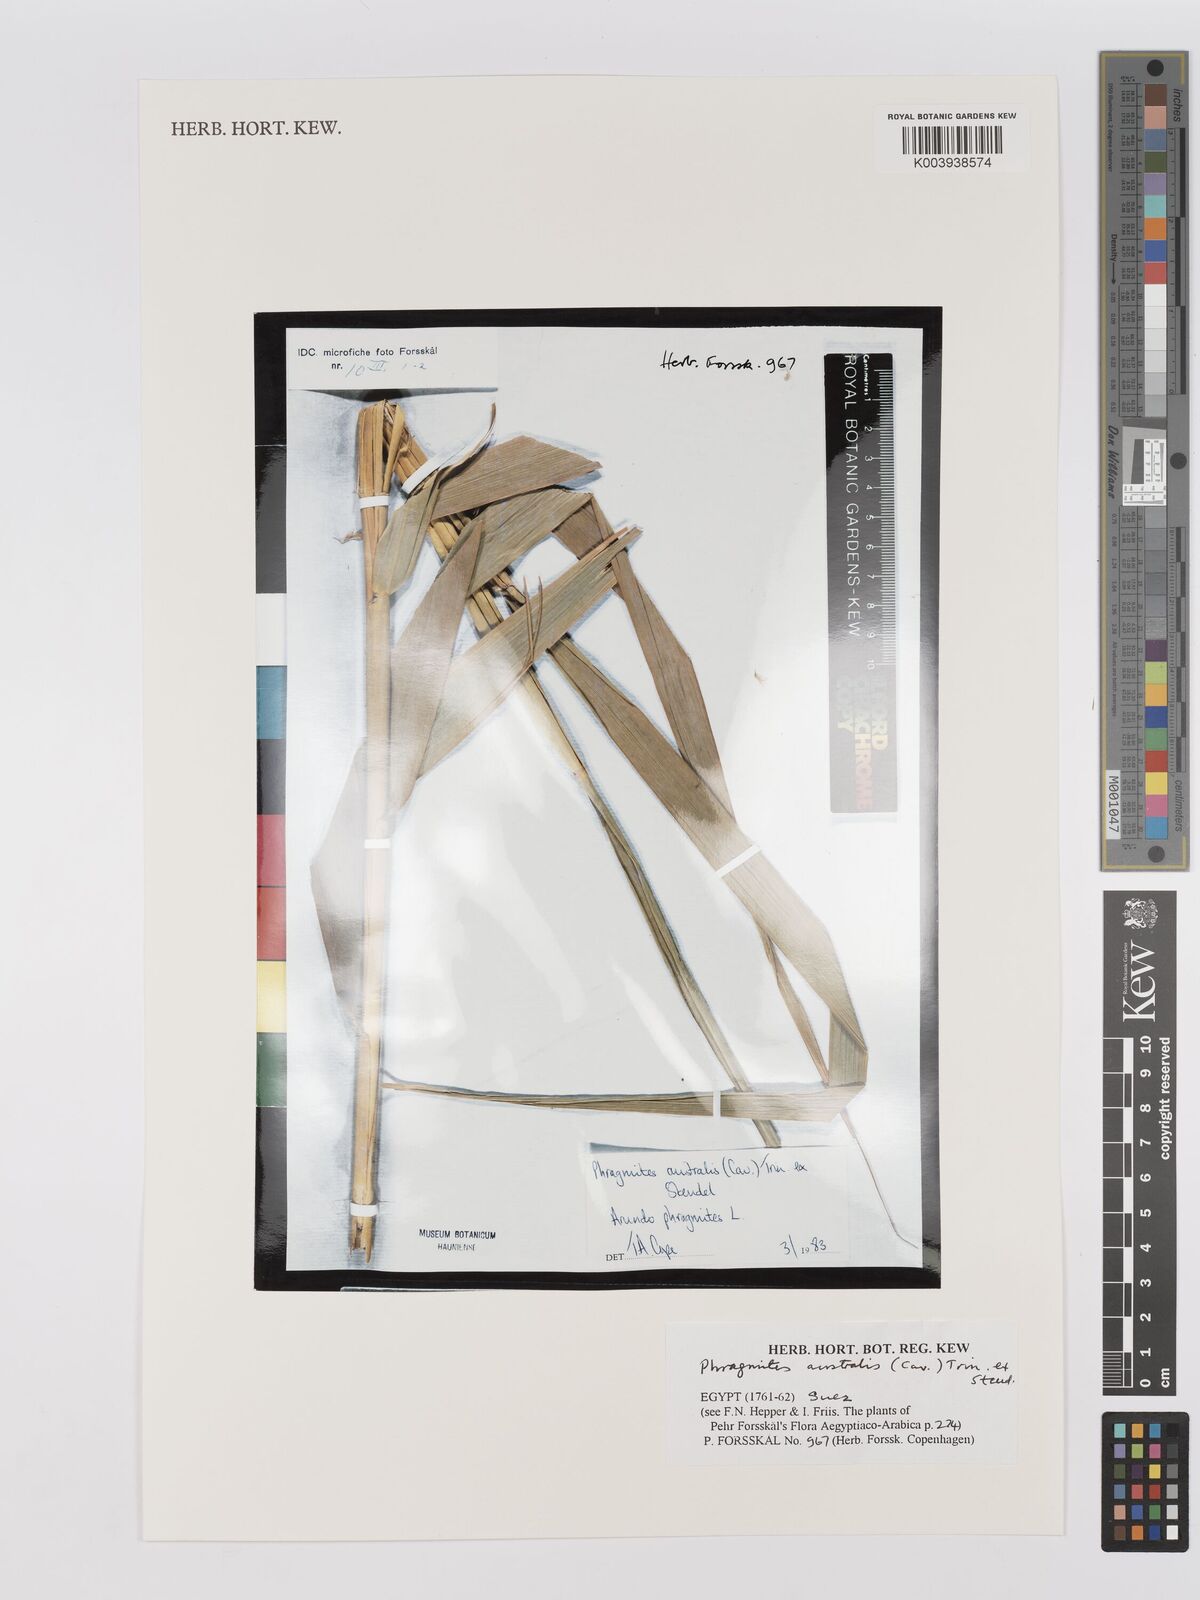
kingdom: Plantae
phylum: Tracheophyta
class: Liliopsida
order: Poales
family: Poaceae
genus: Phragmites
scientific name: Phragmites australis
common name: Common reed
